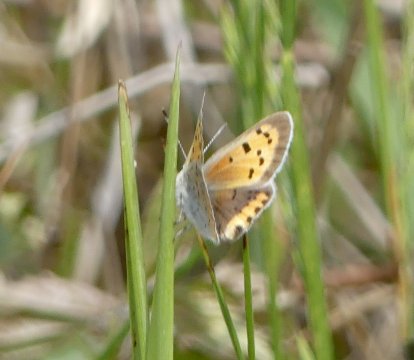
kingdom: Animalia
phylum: Arthropoda
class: Insecta
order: Lepidoptera
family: Lycaenidae
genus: Lycaena
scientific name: Lycaena phlaeas
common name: American Copper
